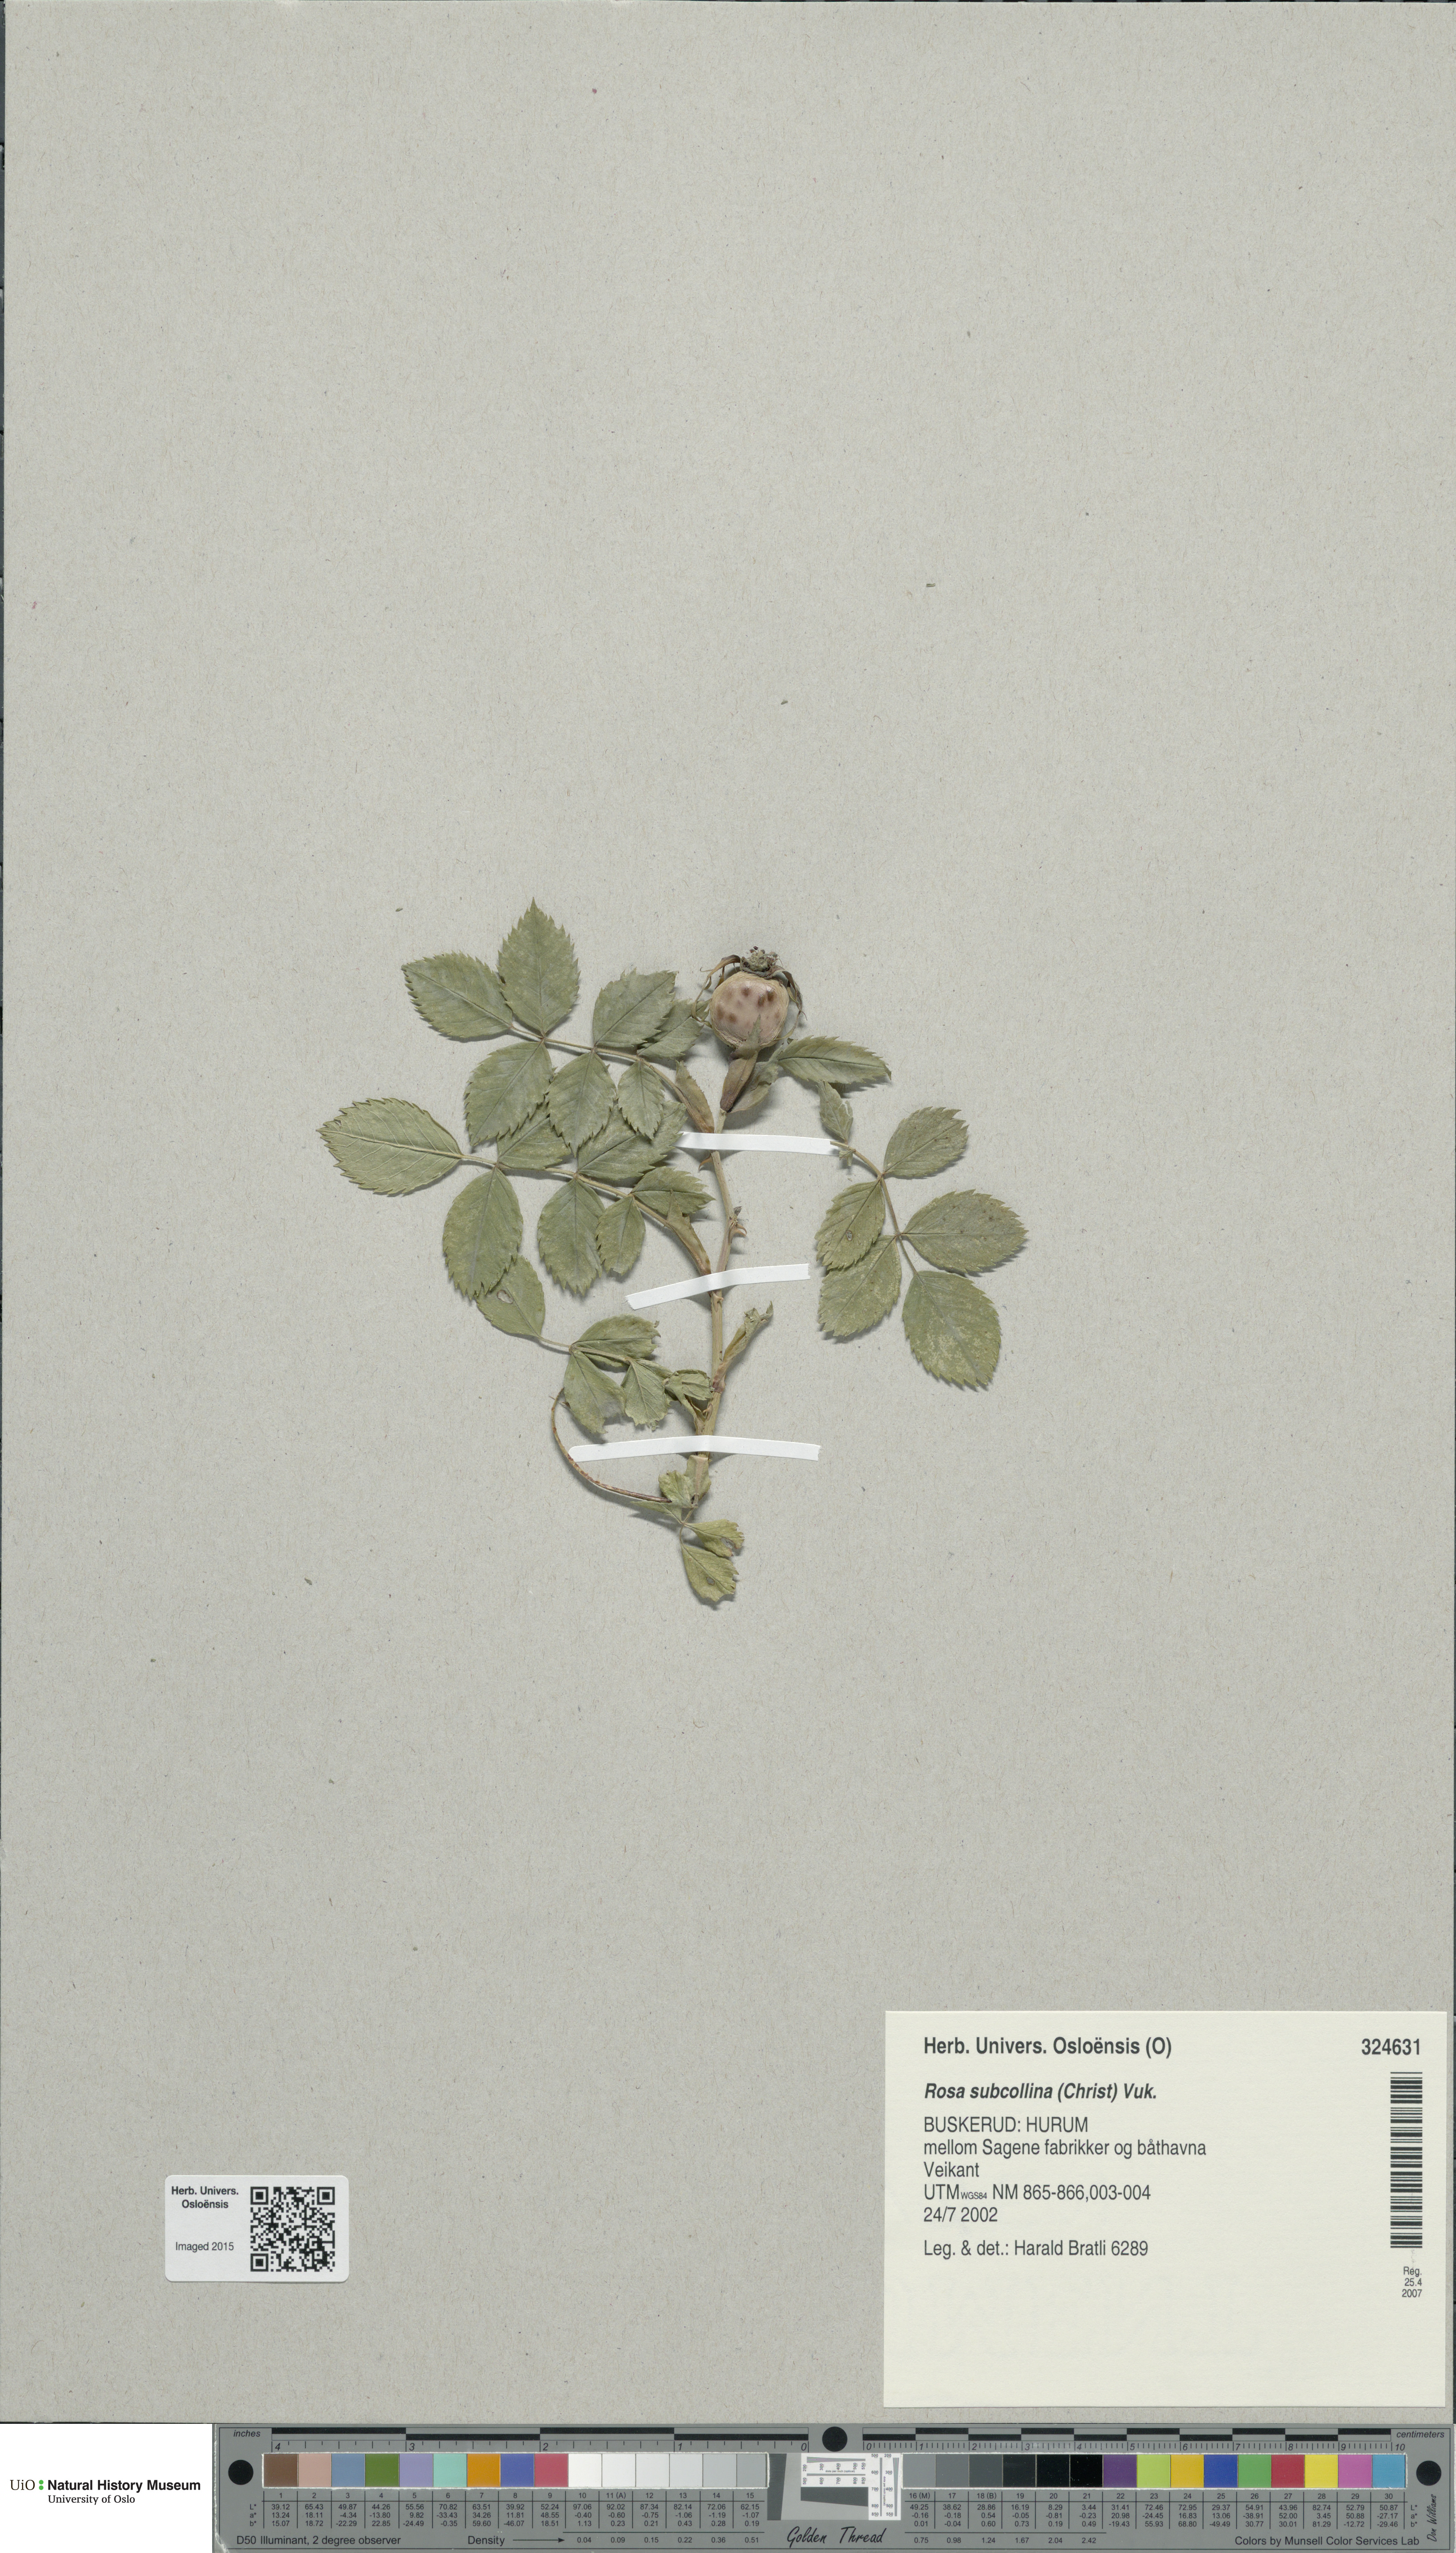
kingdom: Plantae
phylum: Tracheophyta
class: Magnoliopsida
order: Rosales
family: Rosaceae
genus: Rosa
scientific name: Rosa subcollina
